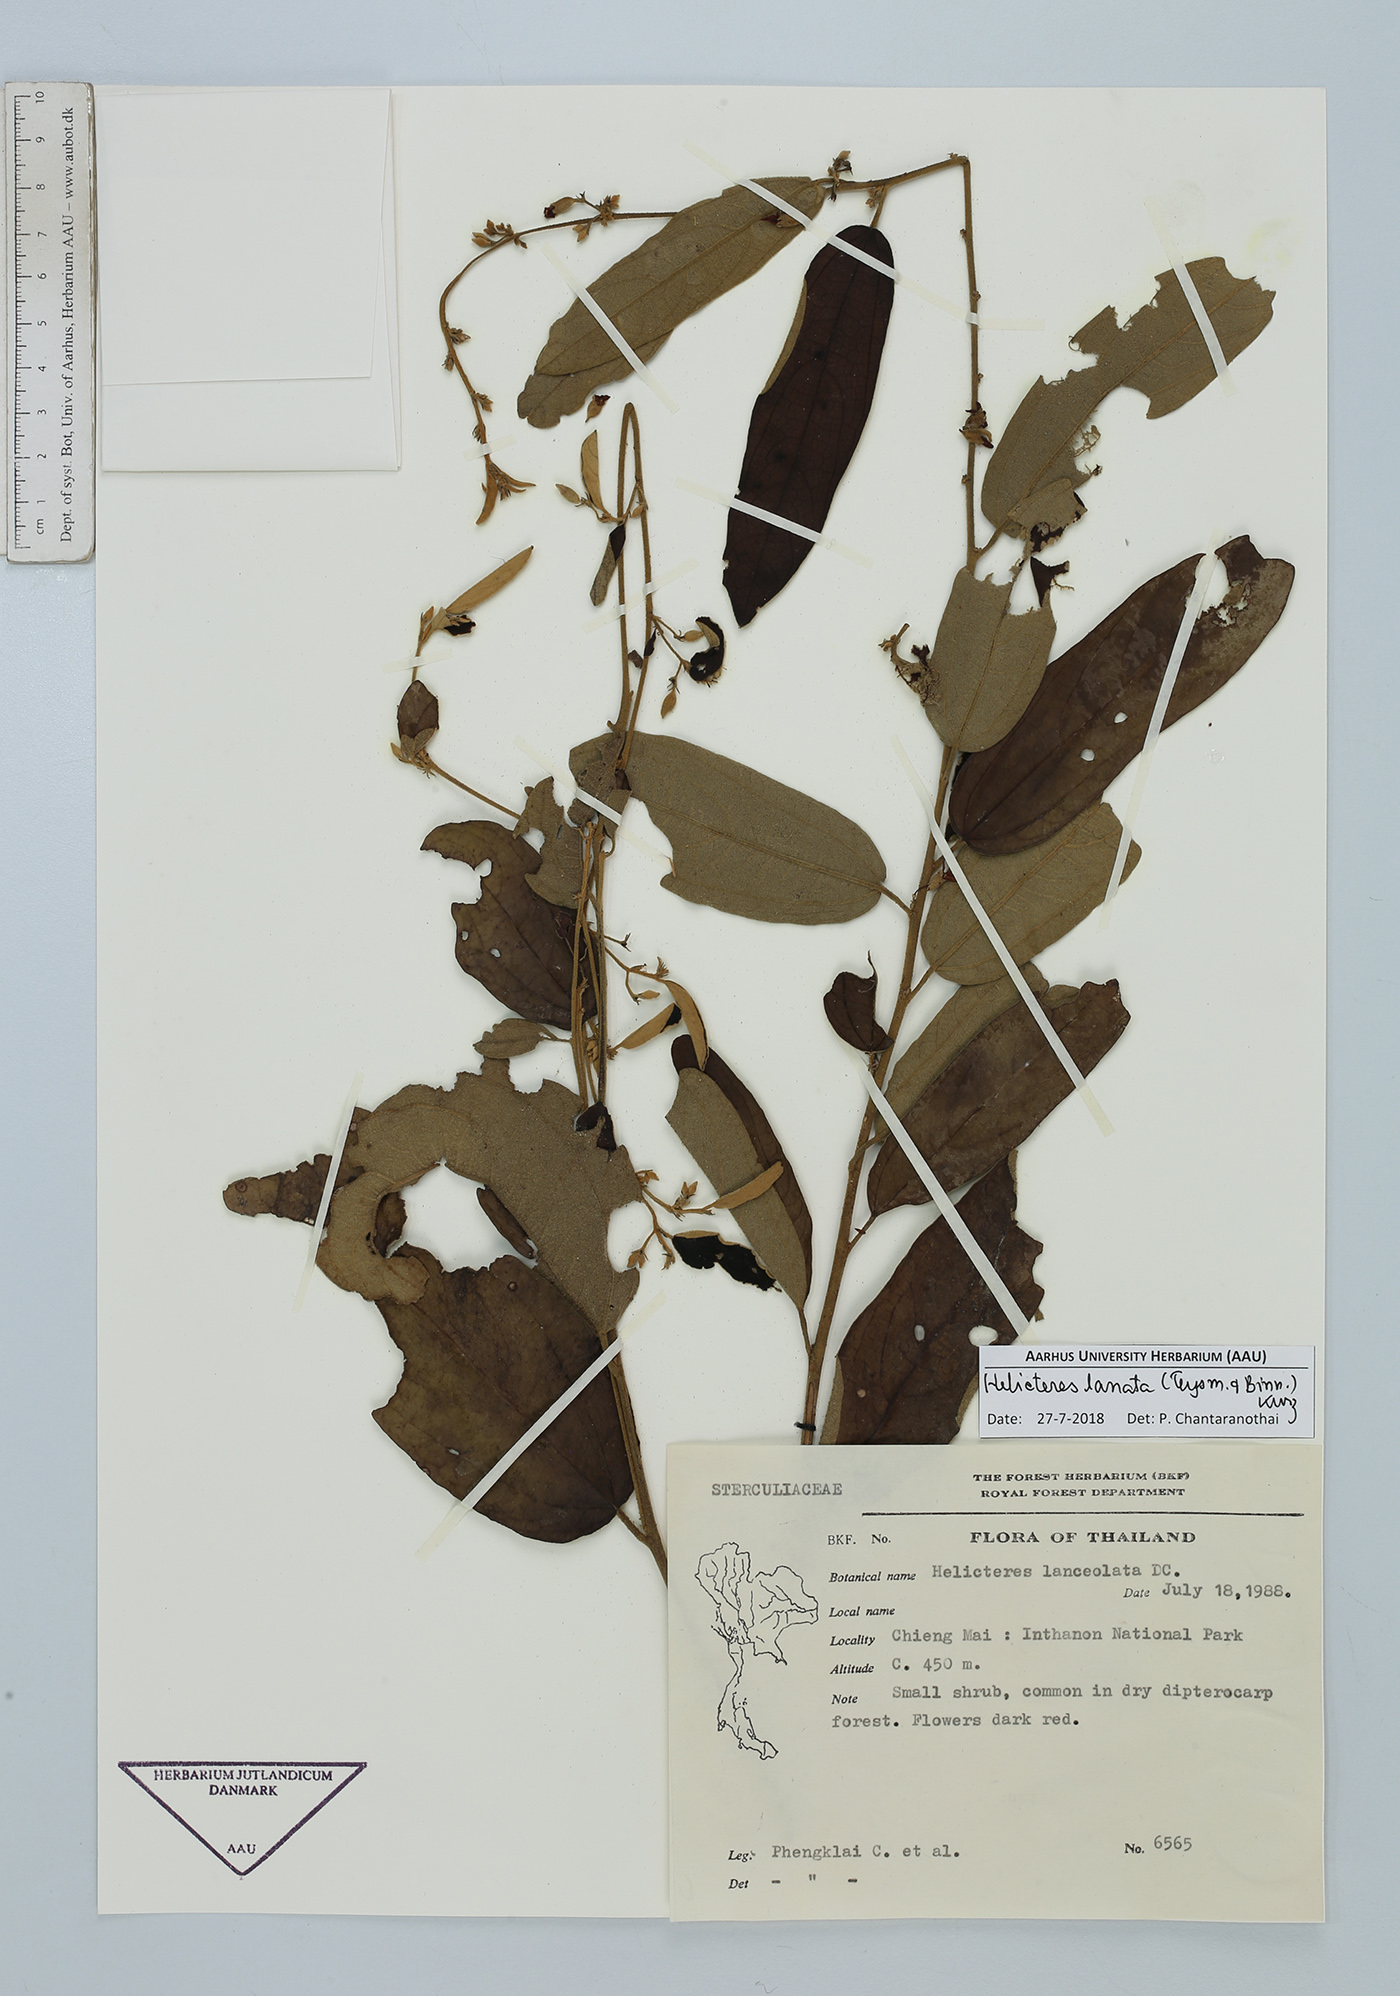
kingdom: Plantae
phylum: Tracheophyta
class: Magnoliopsida
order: Malvales
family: Malvaceae
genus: Helicteres
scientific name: Helicteres lanata
